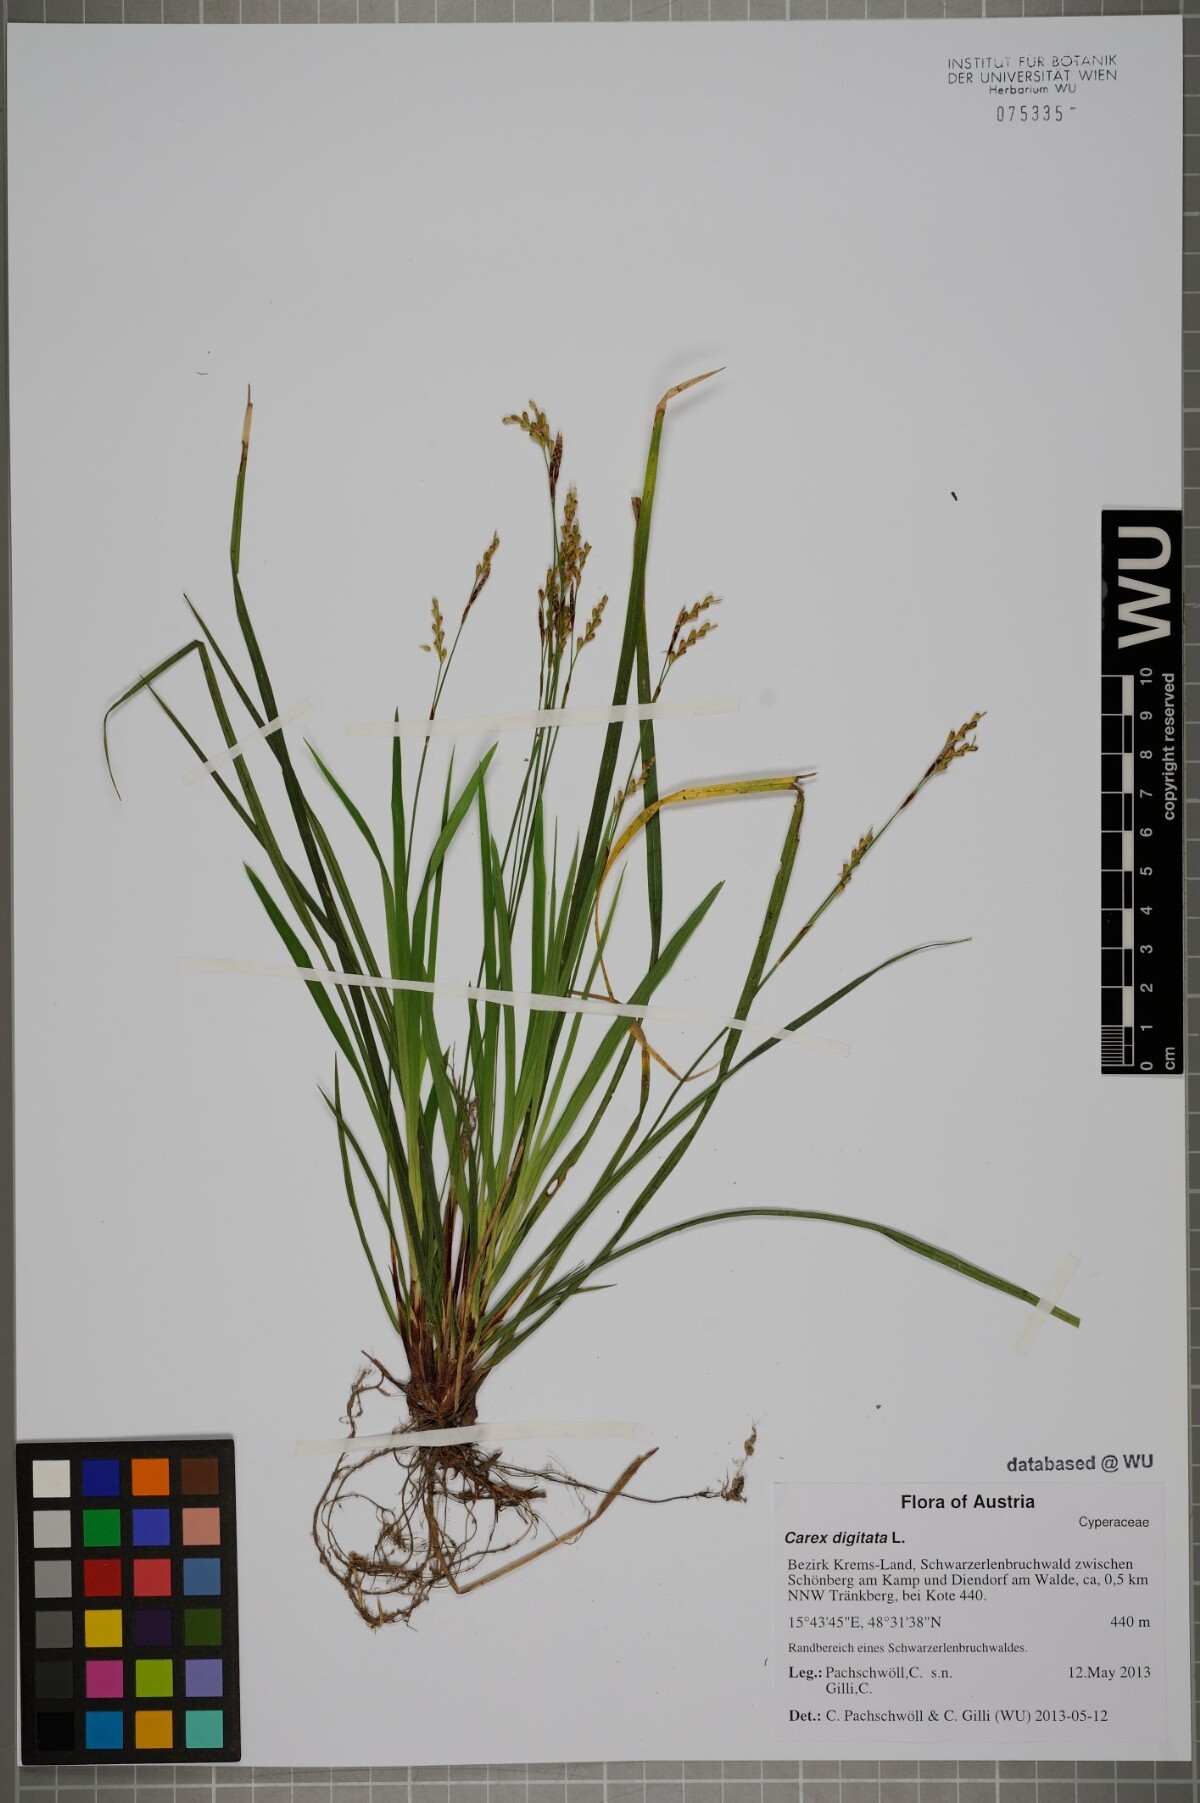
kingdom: Plantae
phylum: Tracheophyta
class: Liliopsida
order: Poales
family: Cyperaceae
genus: Carex
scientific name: Carex digitata
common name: Fingered sedge
